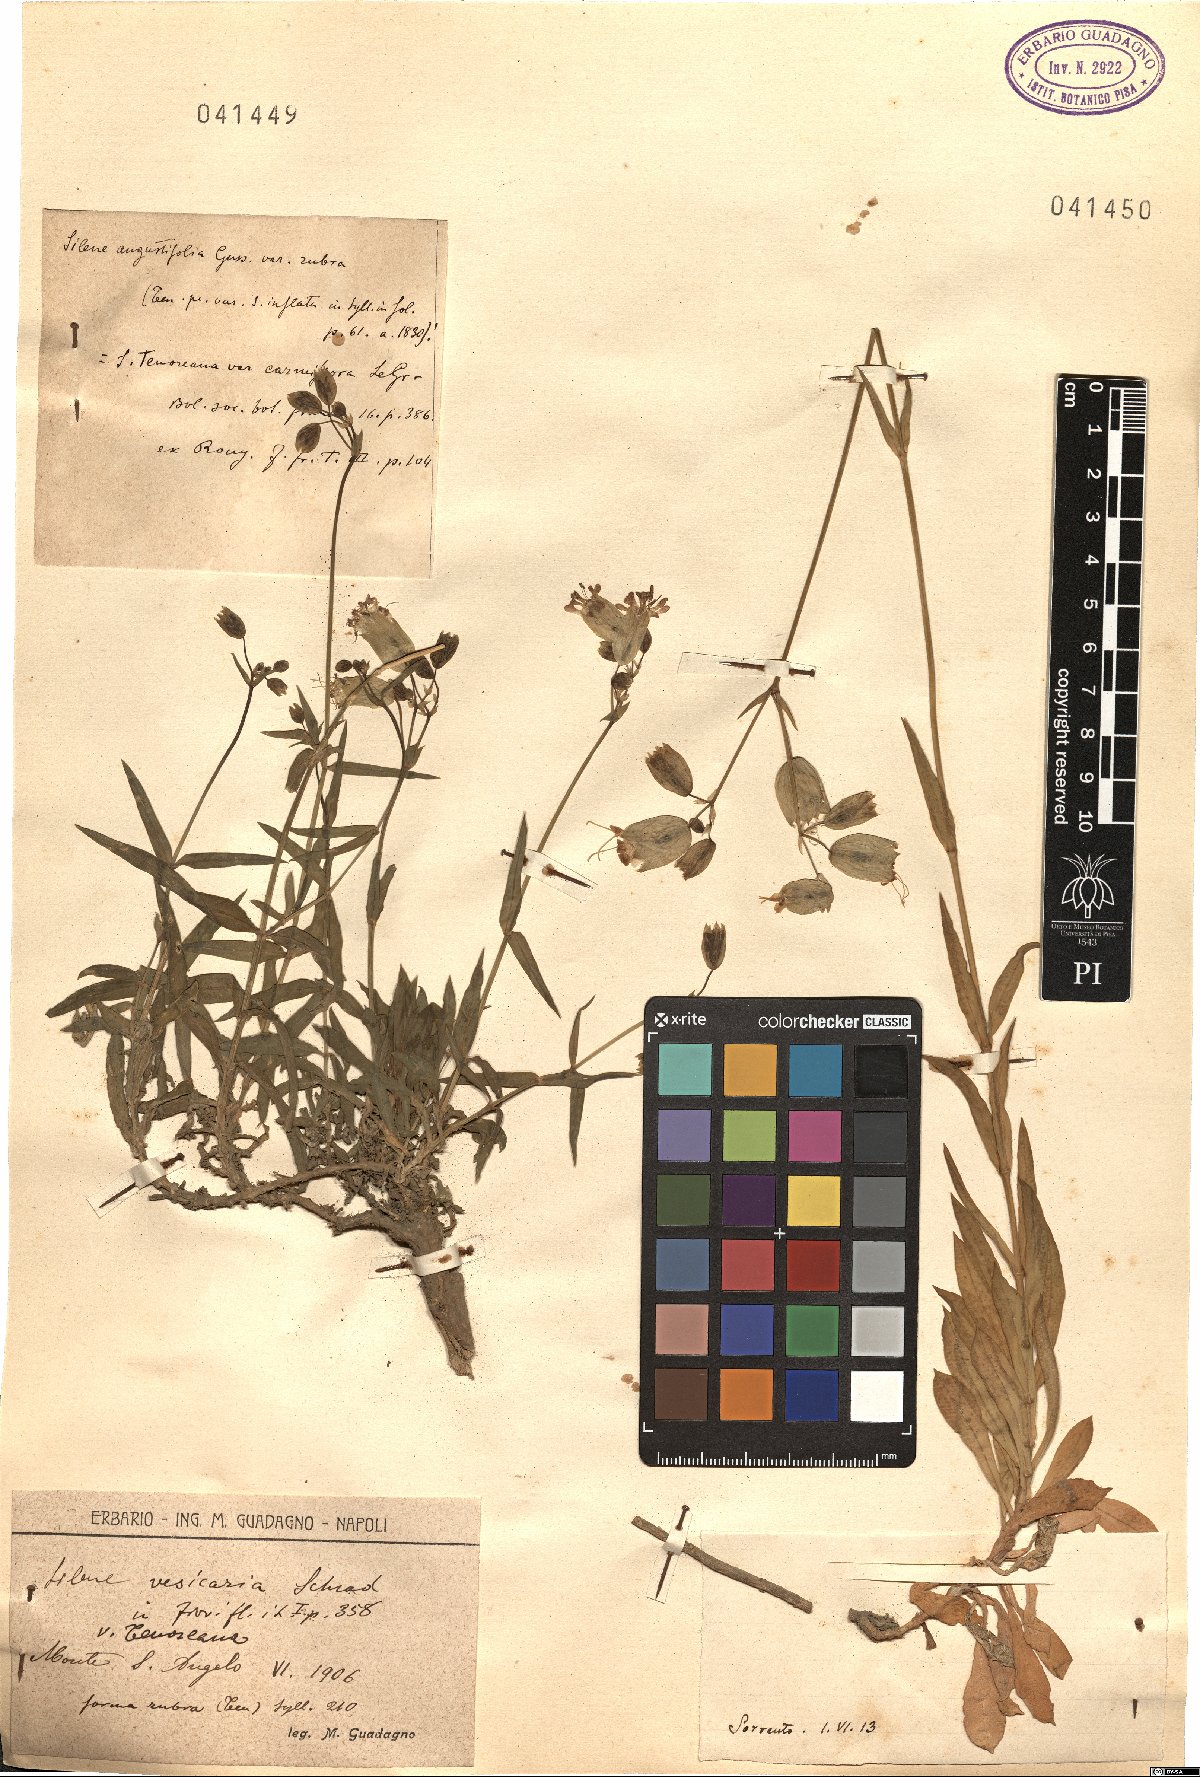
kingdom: Plantae
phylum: Tracheophyta
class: Magnoliopsida
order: Caryophyllales
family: Caryophyllaceae
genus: Silene
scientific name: Silene
